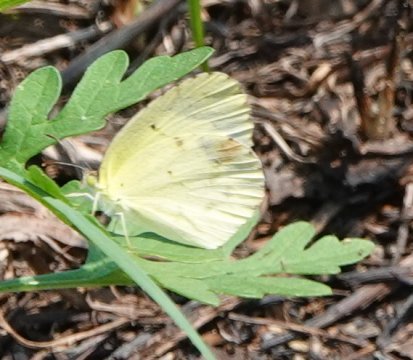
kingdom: Animalia
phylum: Arthropoda
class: Insecta
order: Lepidoptera
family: Pieridae
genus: Pyrisitia
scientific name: Pyrisitia lisa
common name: Little Yellow
